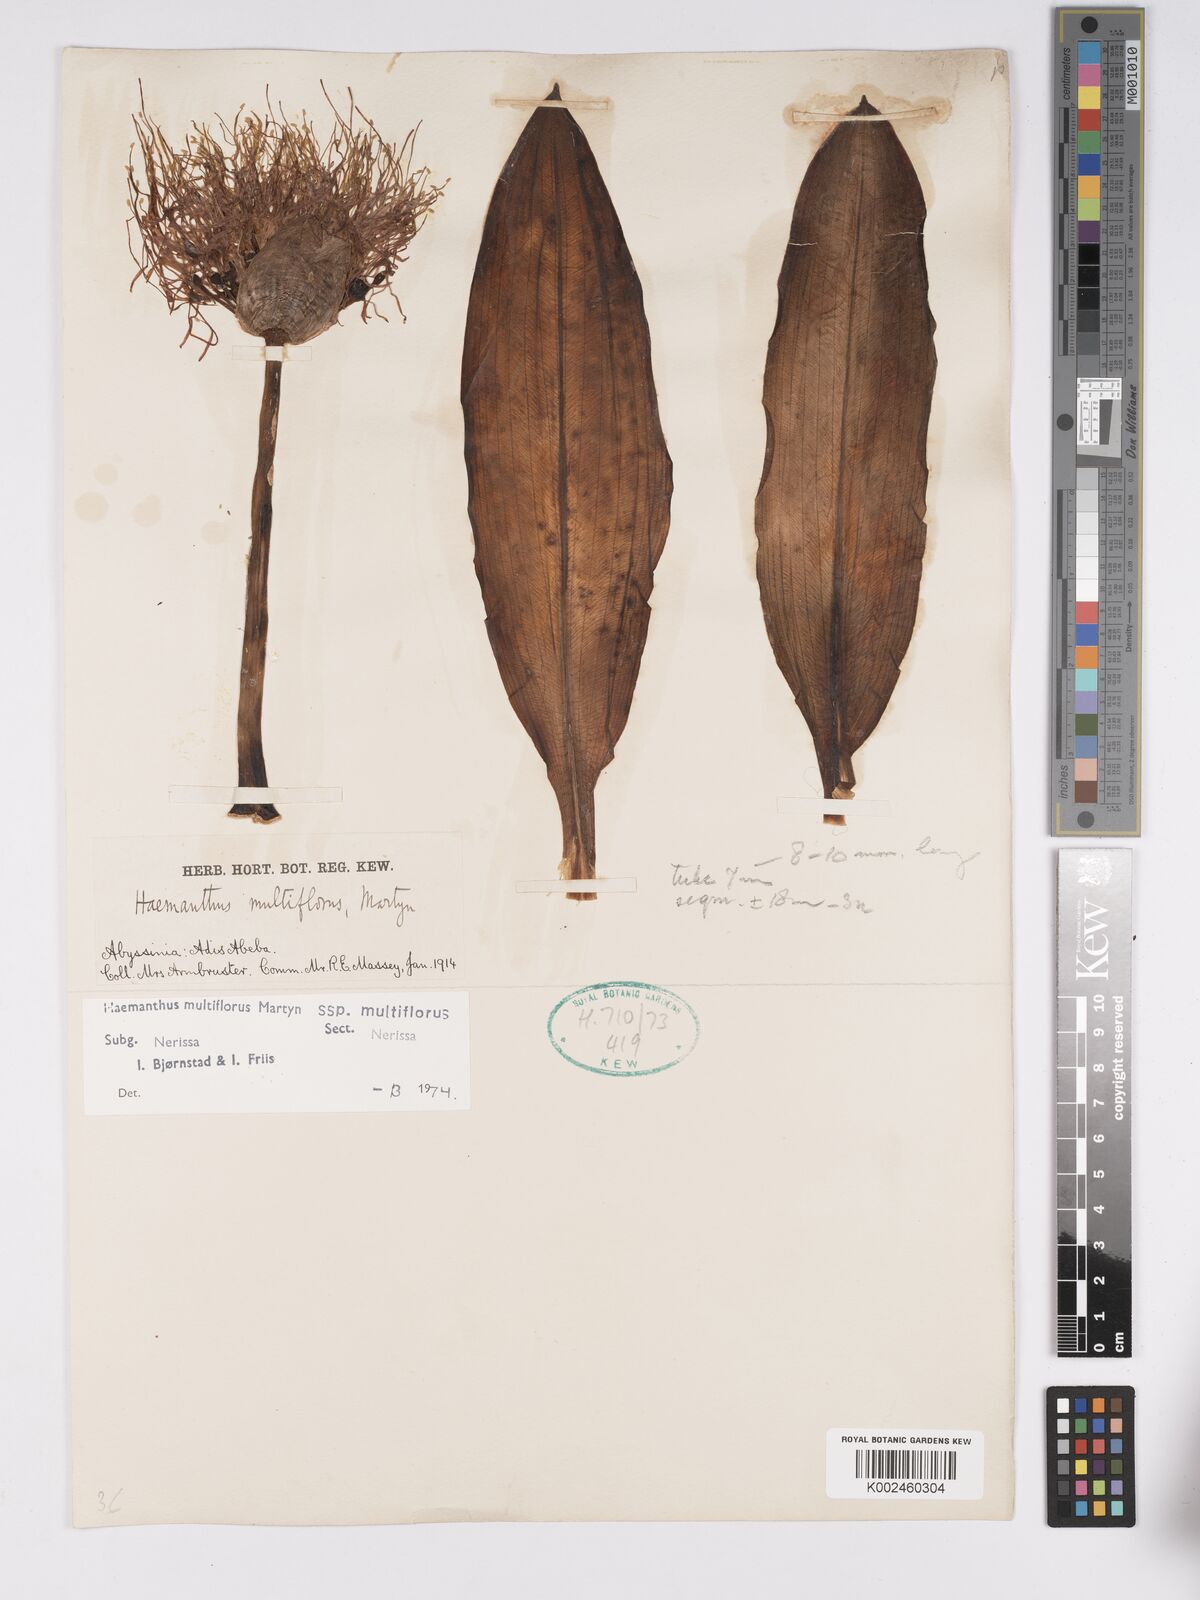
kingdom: Plantae
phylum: Tracheophyta
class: Liliopsida
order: Asparagales
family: Amaryllidaceae
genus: Scadoxus
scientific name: Scadoxus multiflorus
